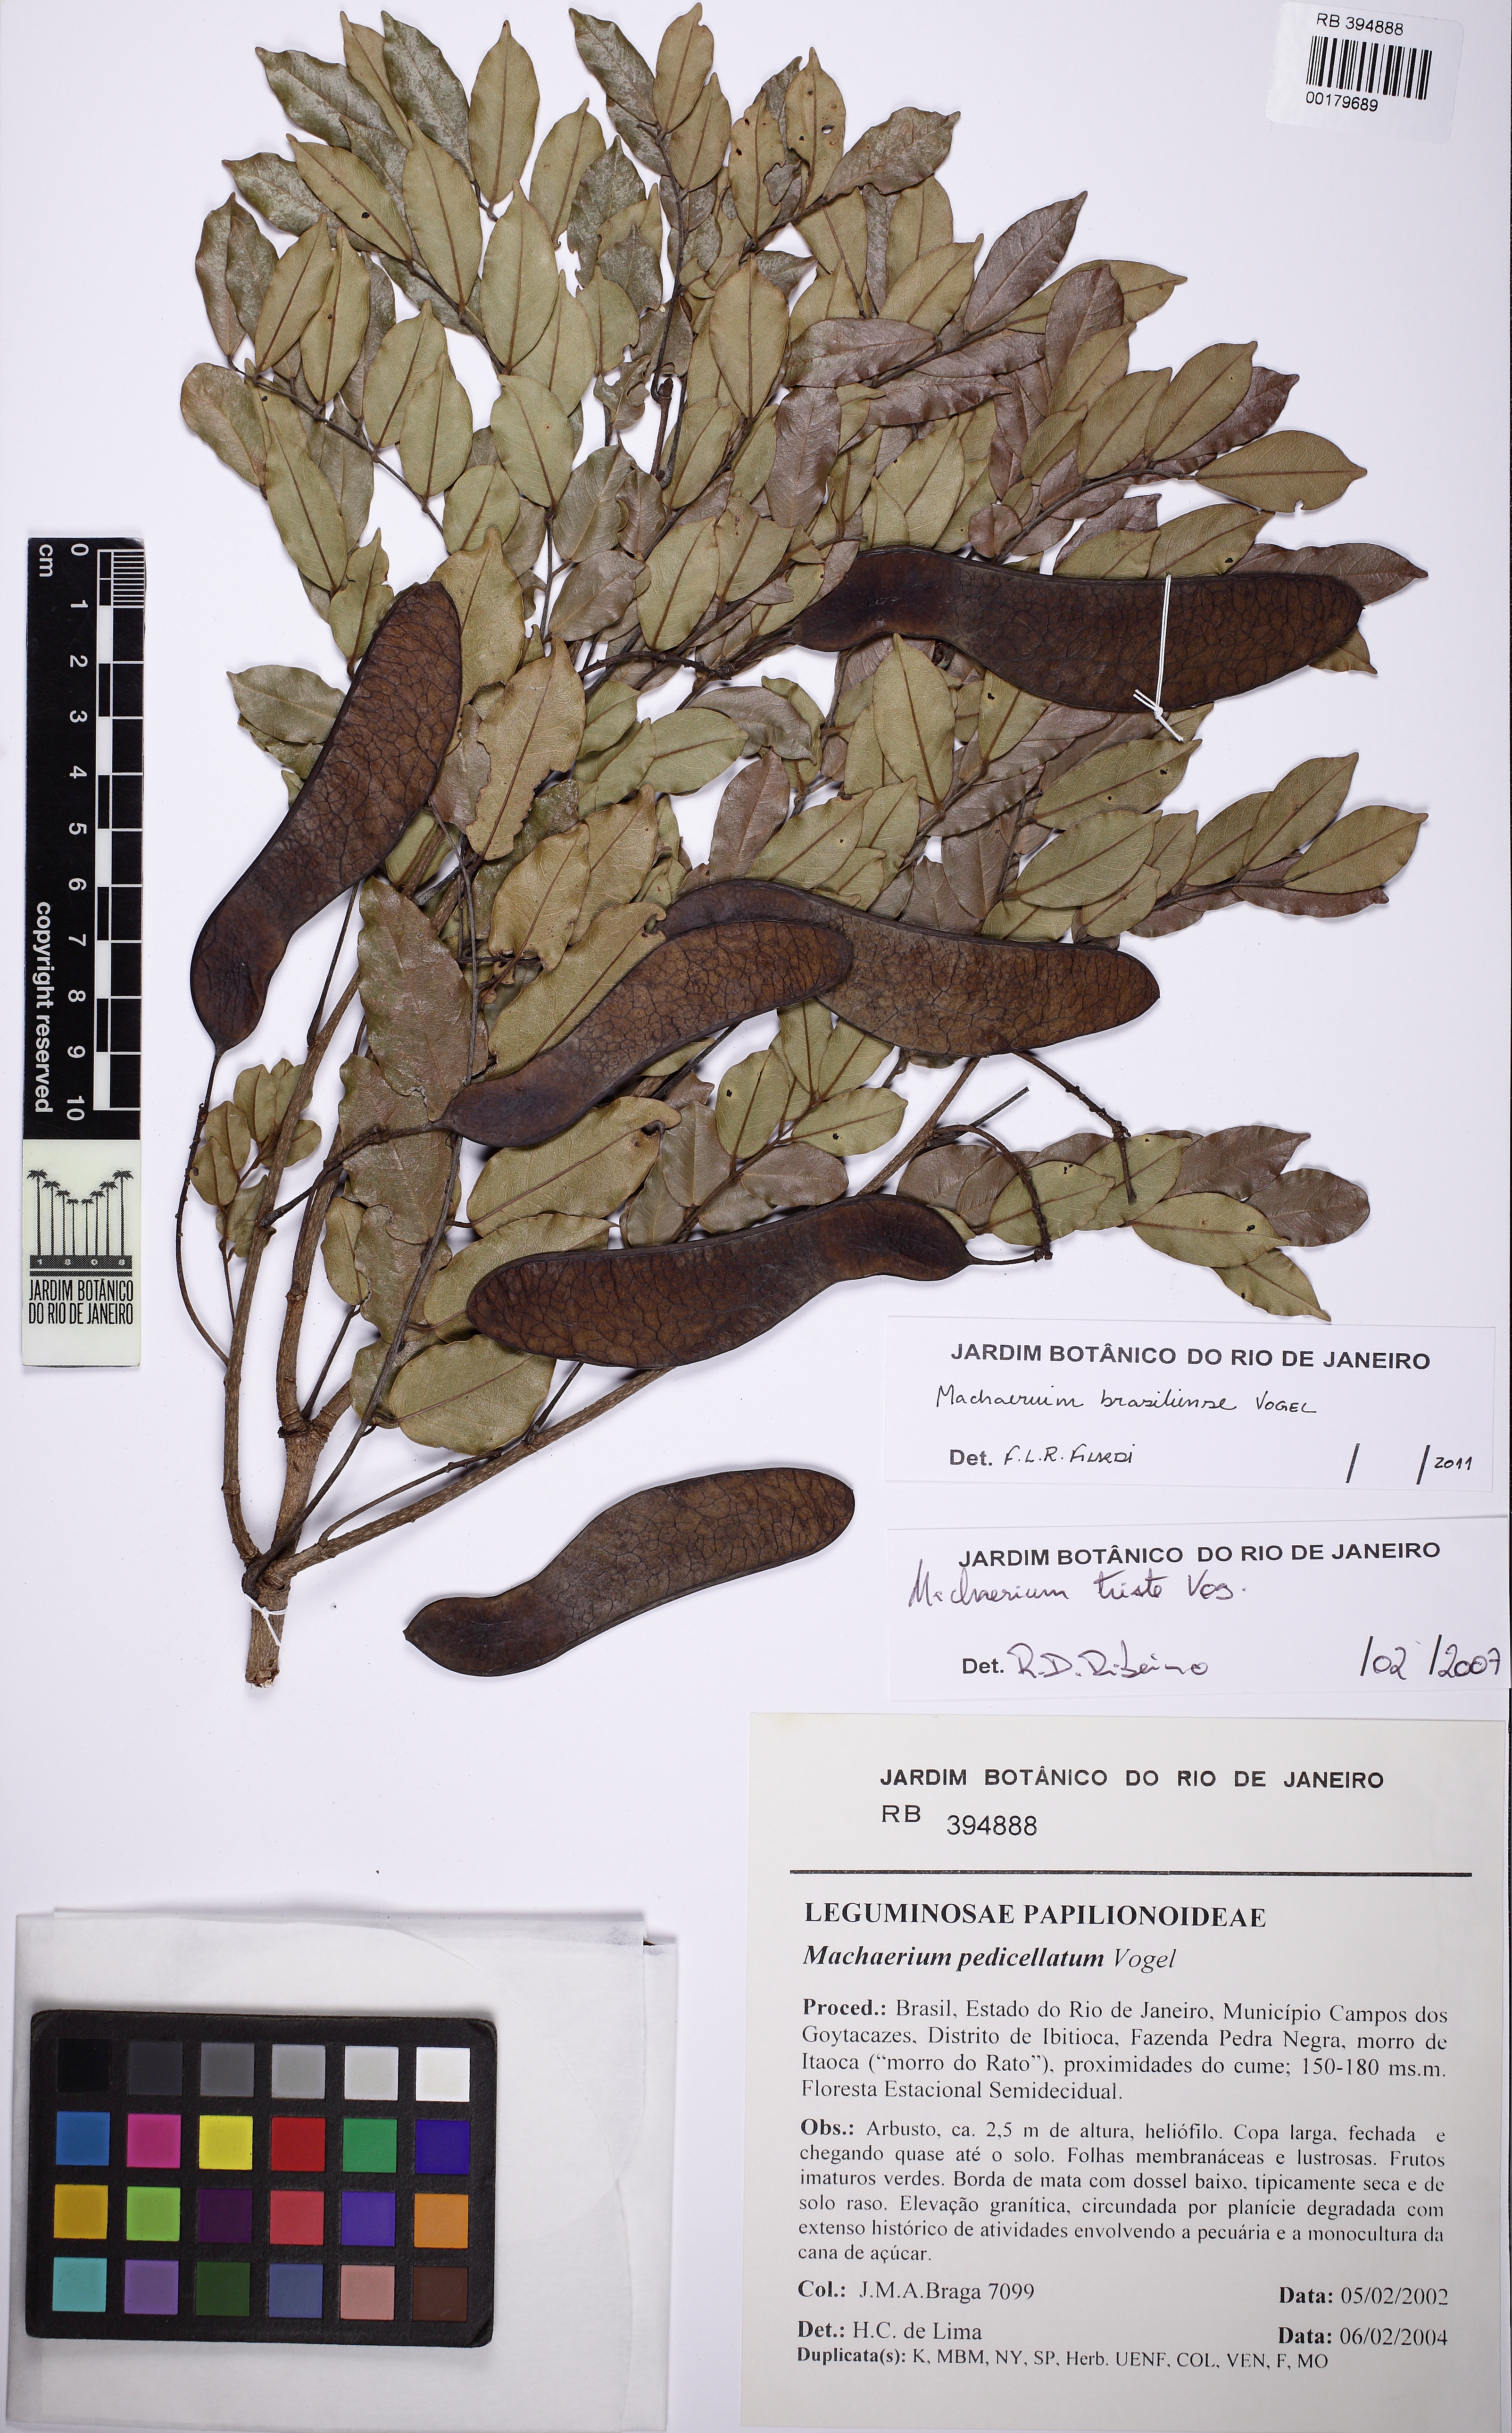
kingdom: Plantae
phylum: Tracheophyta
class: Magnoliopsida
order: Fabales
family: Fabaceae
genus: Machaerium
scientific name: Machaerium brasiliense
